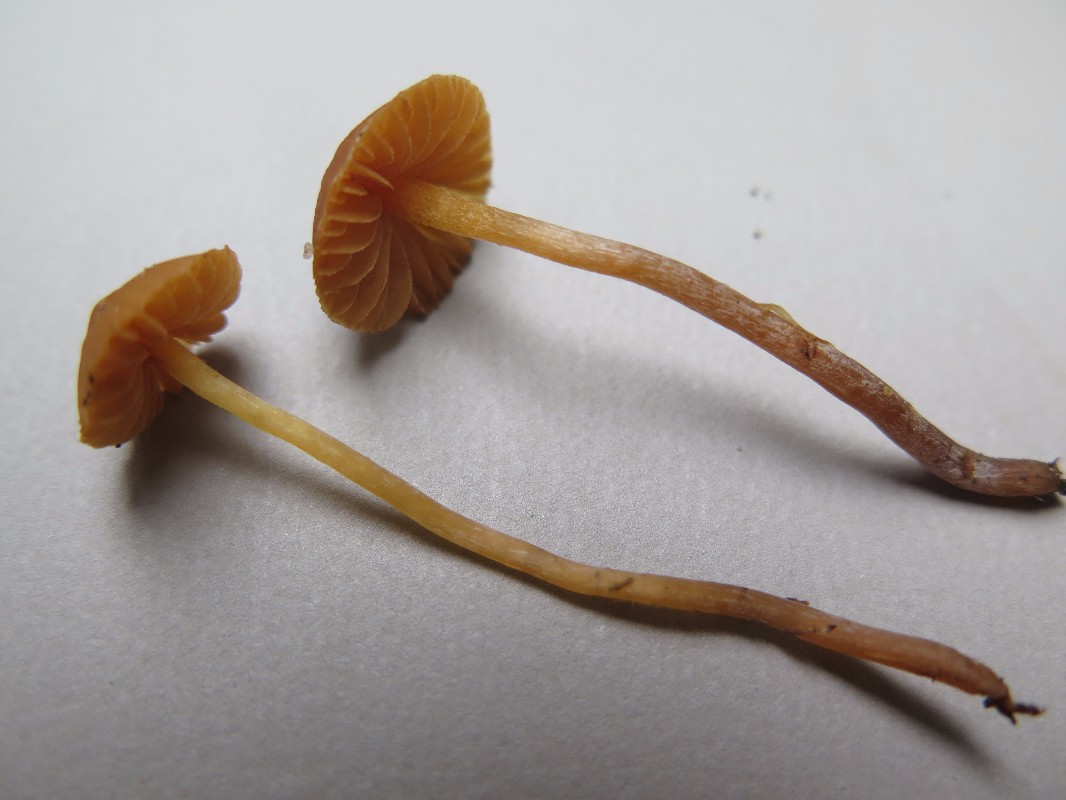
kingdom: Fungi
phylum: Basidiomycota
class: Agaricomycetes
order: Agaricales
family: Hymenogastraceae
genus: Galerina
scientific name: Galerina clavata
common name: kær-hjelmhat
